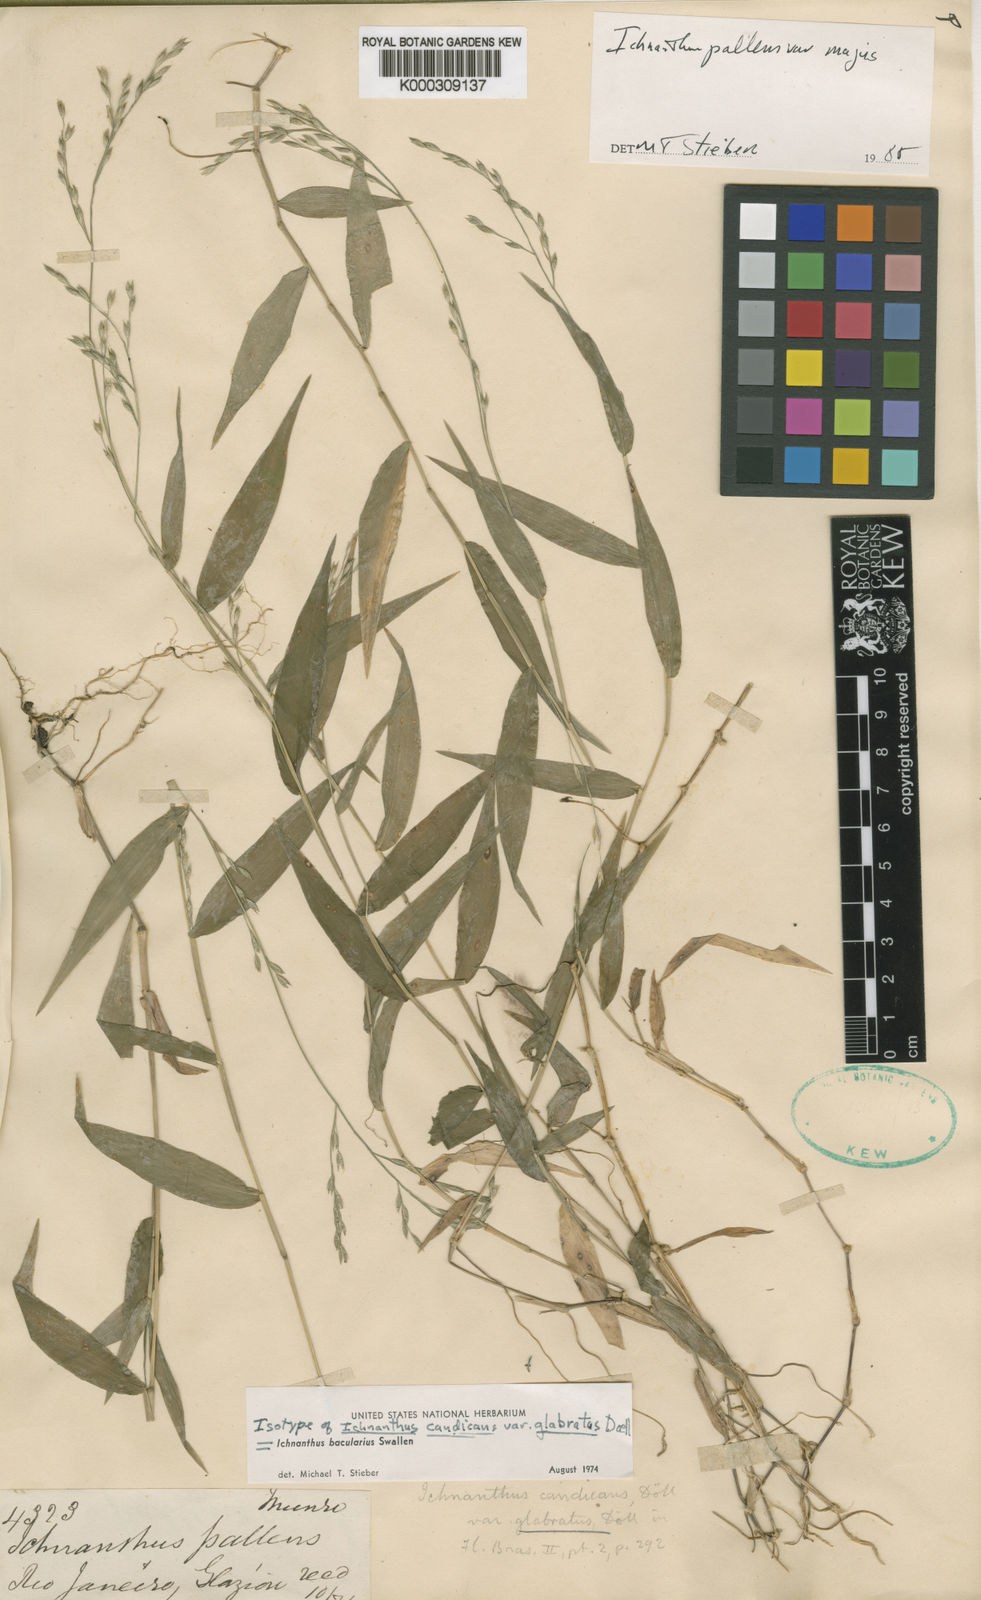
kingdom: Plantae
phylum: Tracheophyta
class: Liliopsida
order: Poales
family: Poaceae
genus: Ichnanthus
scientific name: Ichnanthus pallens
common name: Water grass
